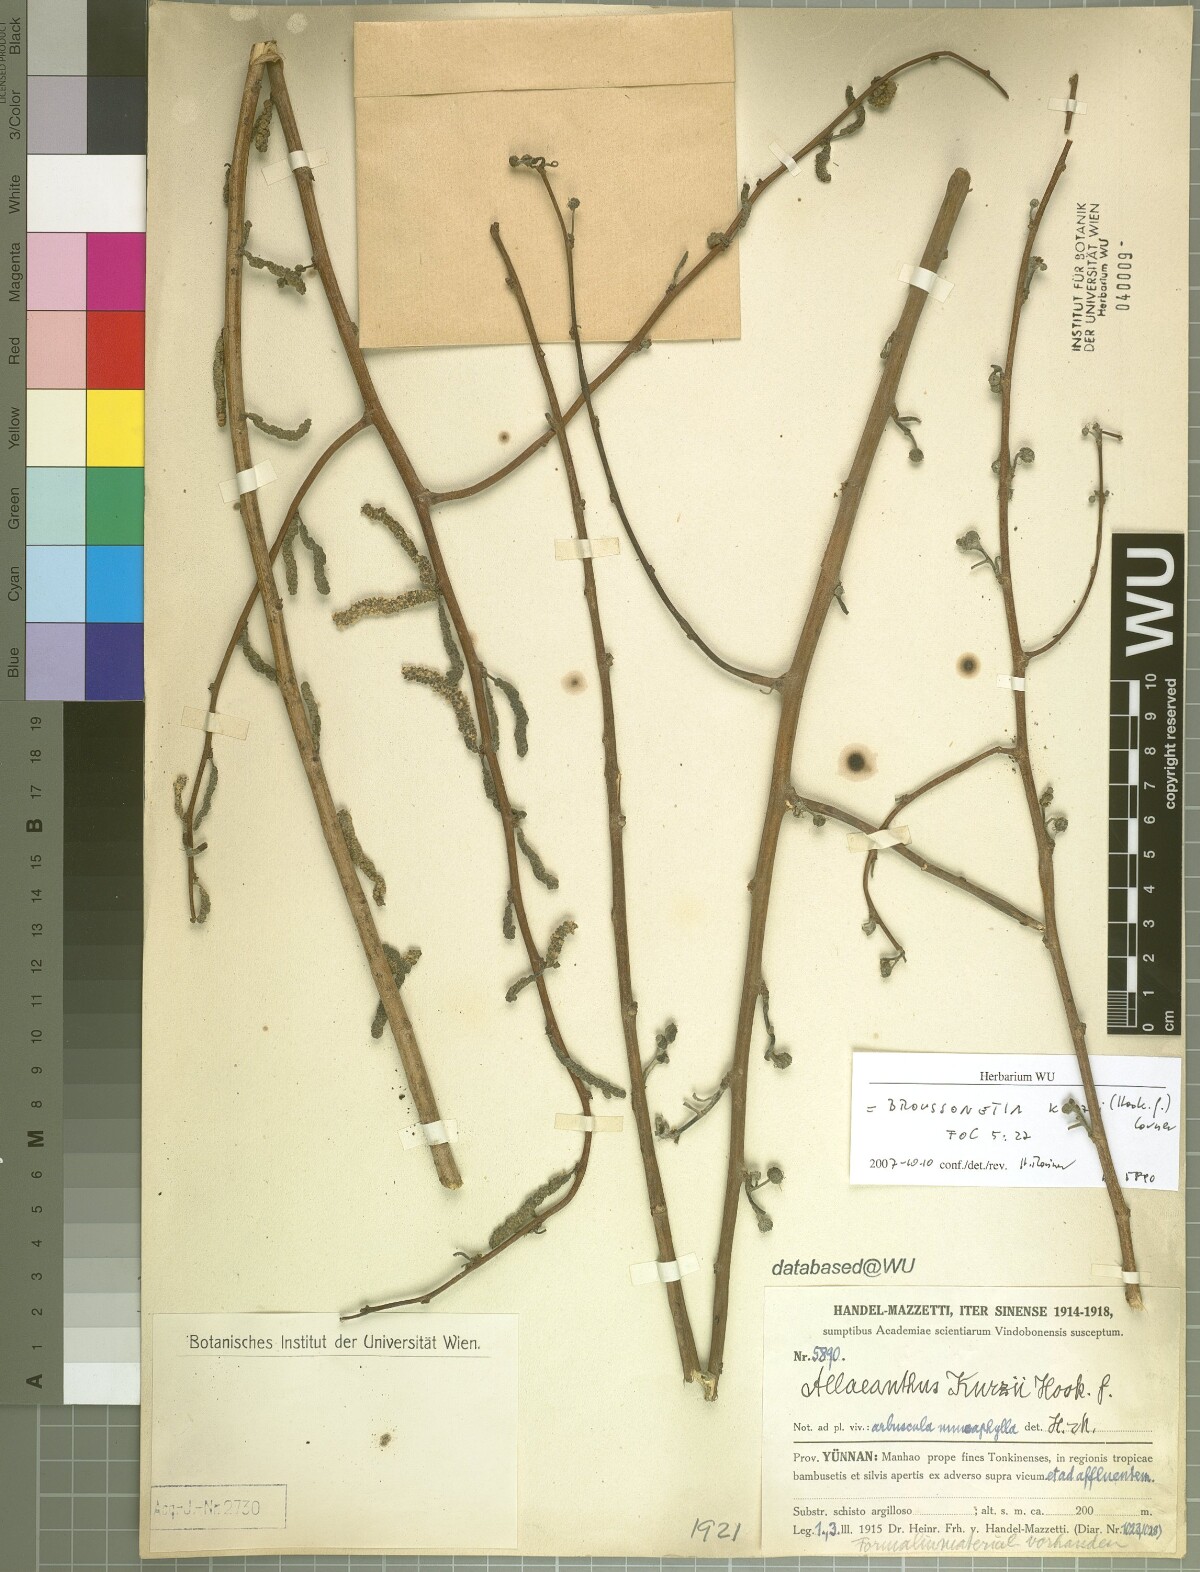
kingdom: Plantae
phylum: Tracheophyta
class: Magnoliopsida
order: Rosales
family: Moraceae
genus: Allaeanthus
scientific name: Allaeanthus kurzii
